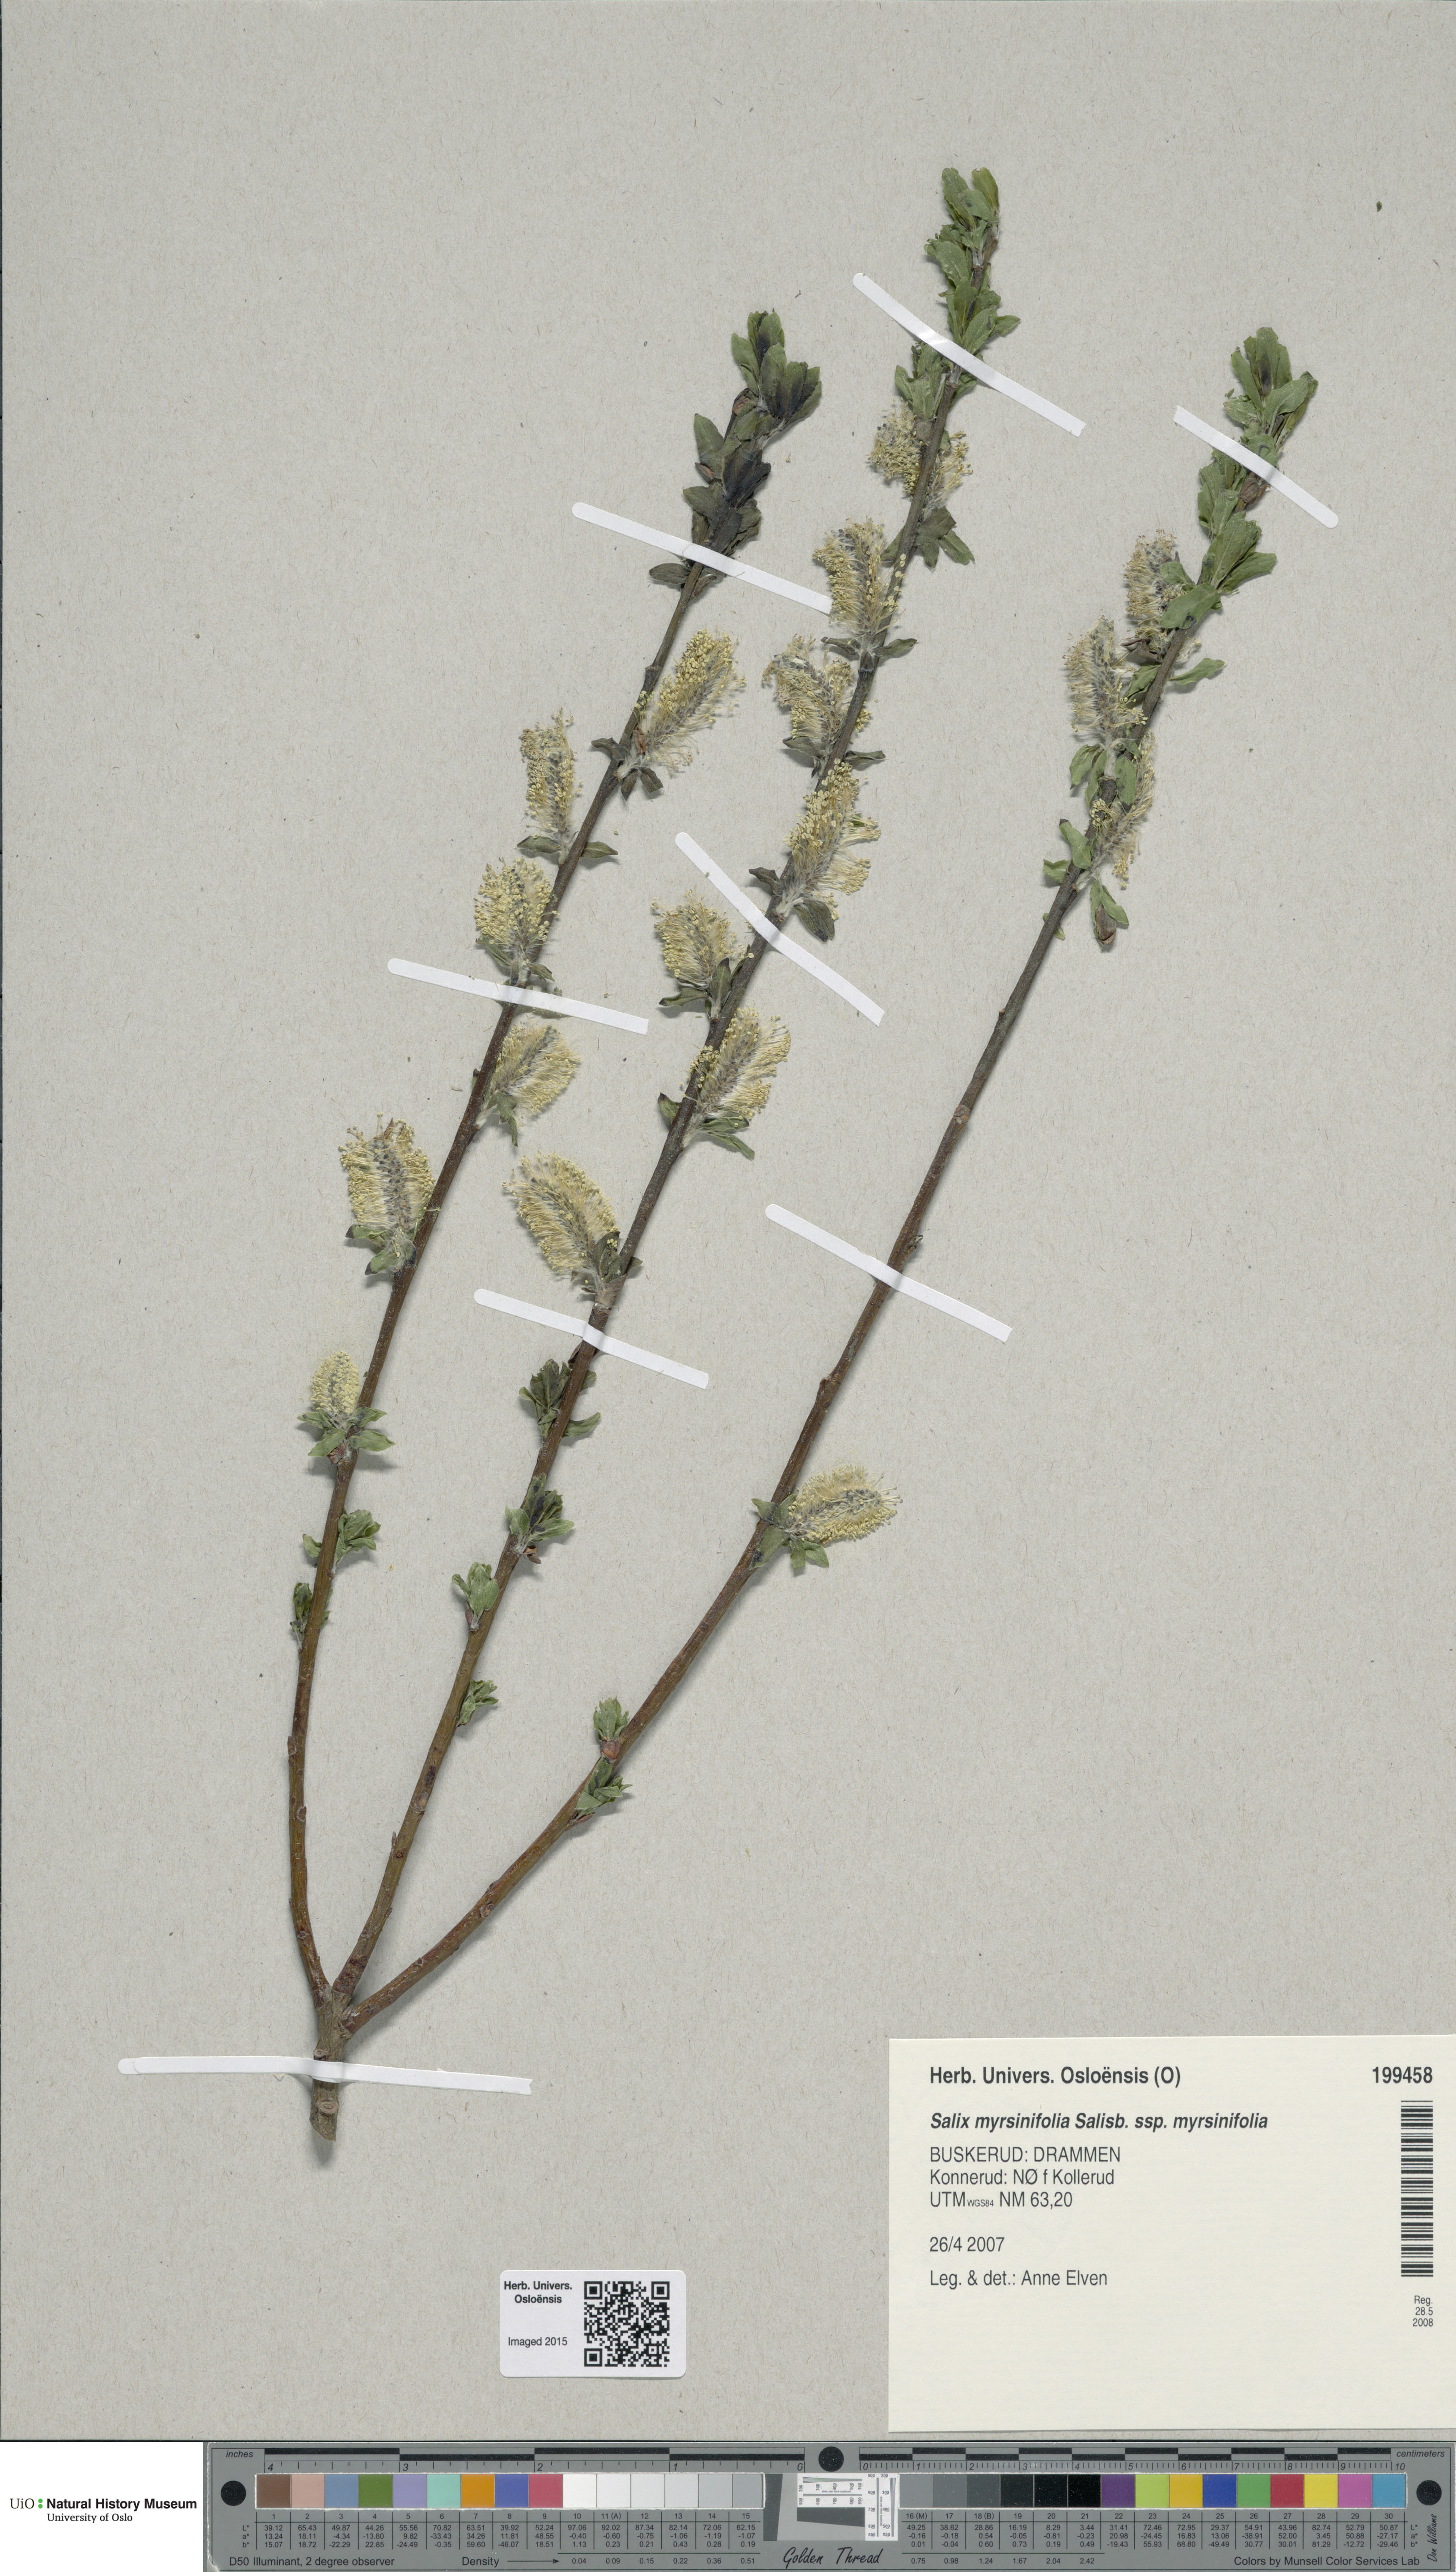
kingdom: Plantae
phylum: Tracheophyta
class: Magnoliopsida
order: Malpighiales
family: Salicaceae
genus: Salix
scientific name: Salix myrsinifolia
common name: Dark-leaved willow
